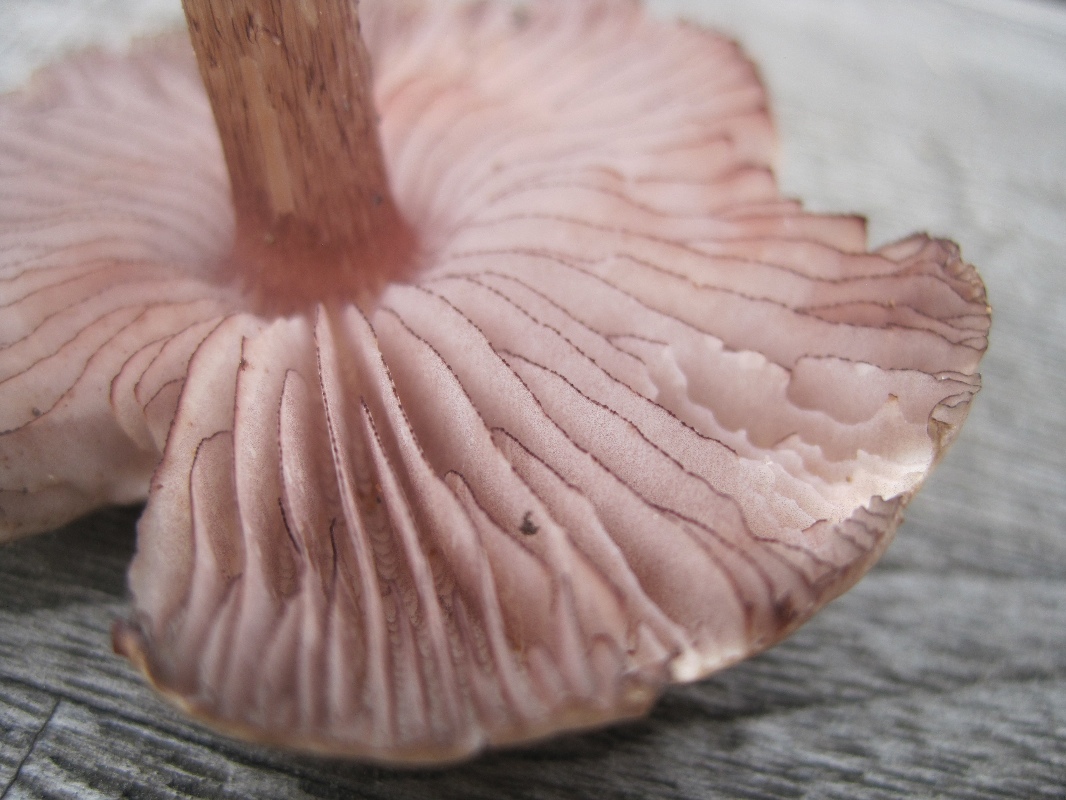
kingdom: Fungi
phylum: Basidiomycota
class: Agaricomycetes
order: Agaricales
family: Mycenaceae
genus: Mycena
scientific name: Mycena pelianthina
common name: mørkbladet huesvamp
